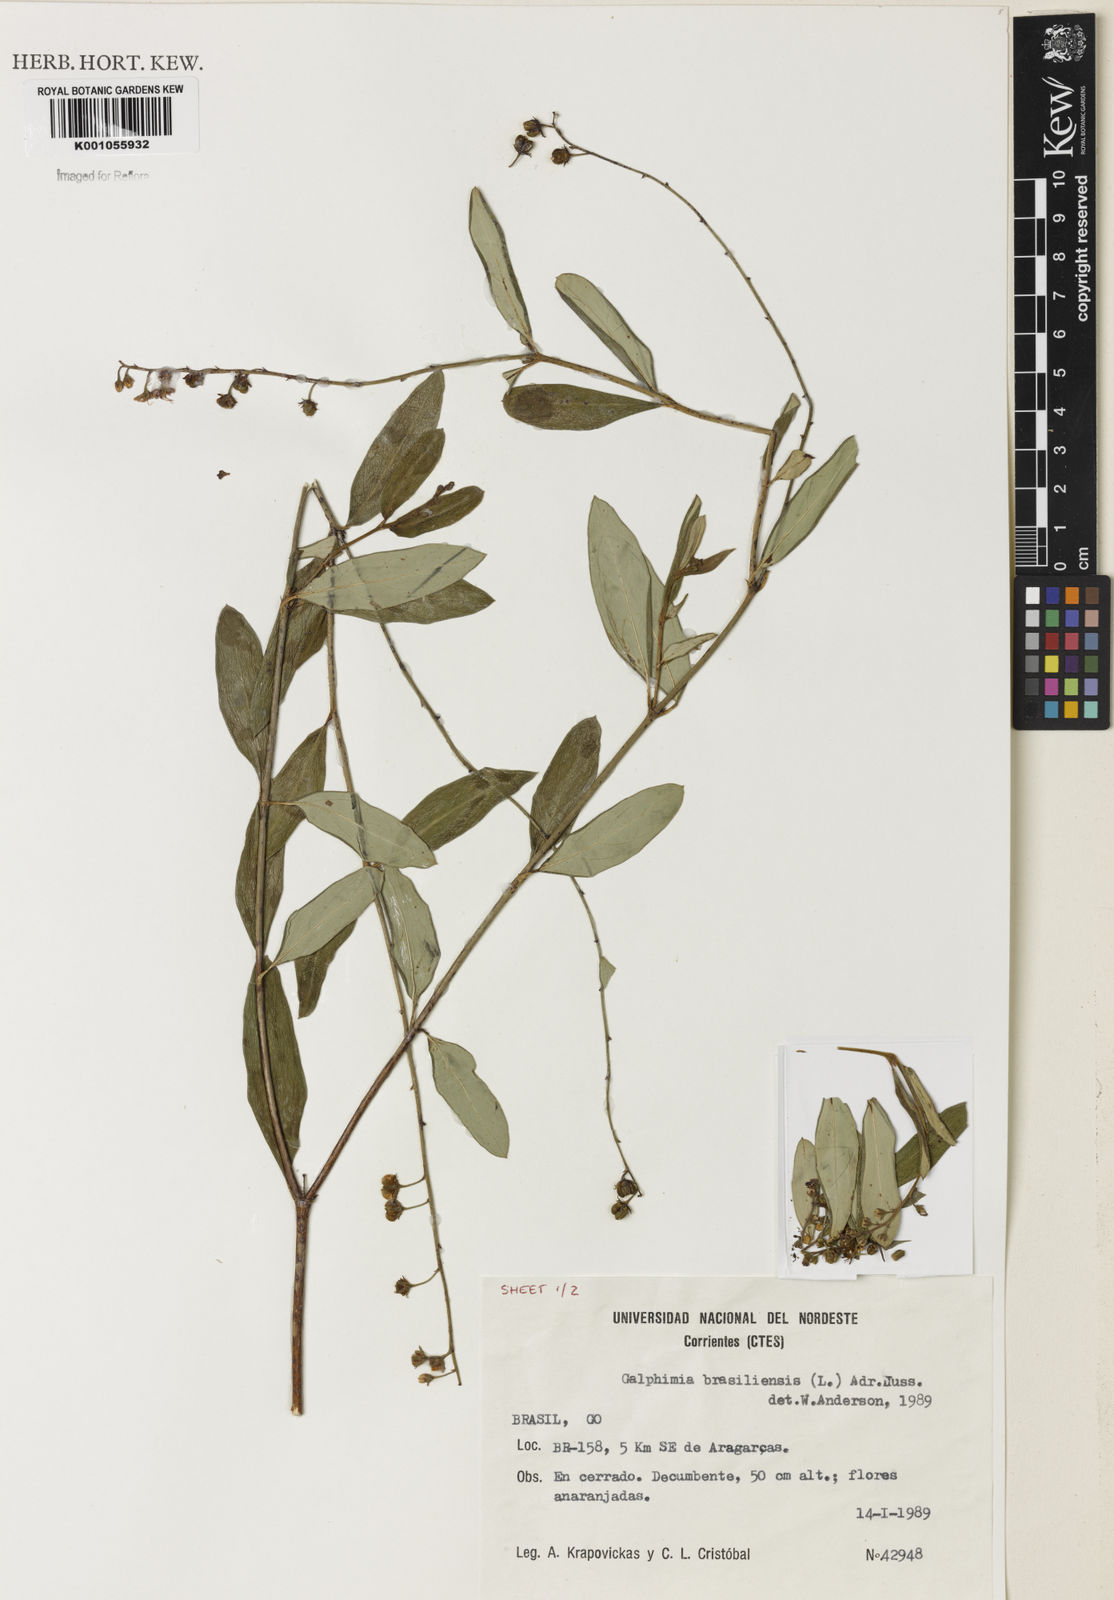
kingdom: Plantae
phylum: Tracheophyta
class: Magnoliopsida
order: Malpighiales
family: Malpighiaceae
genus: Galphimia
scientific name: Galphimia brasiliensis
